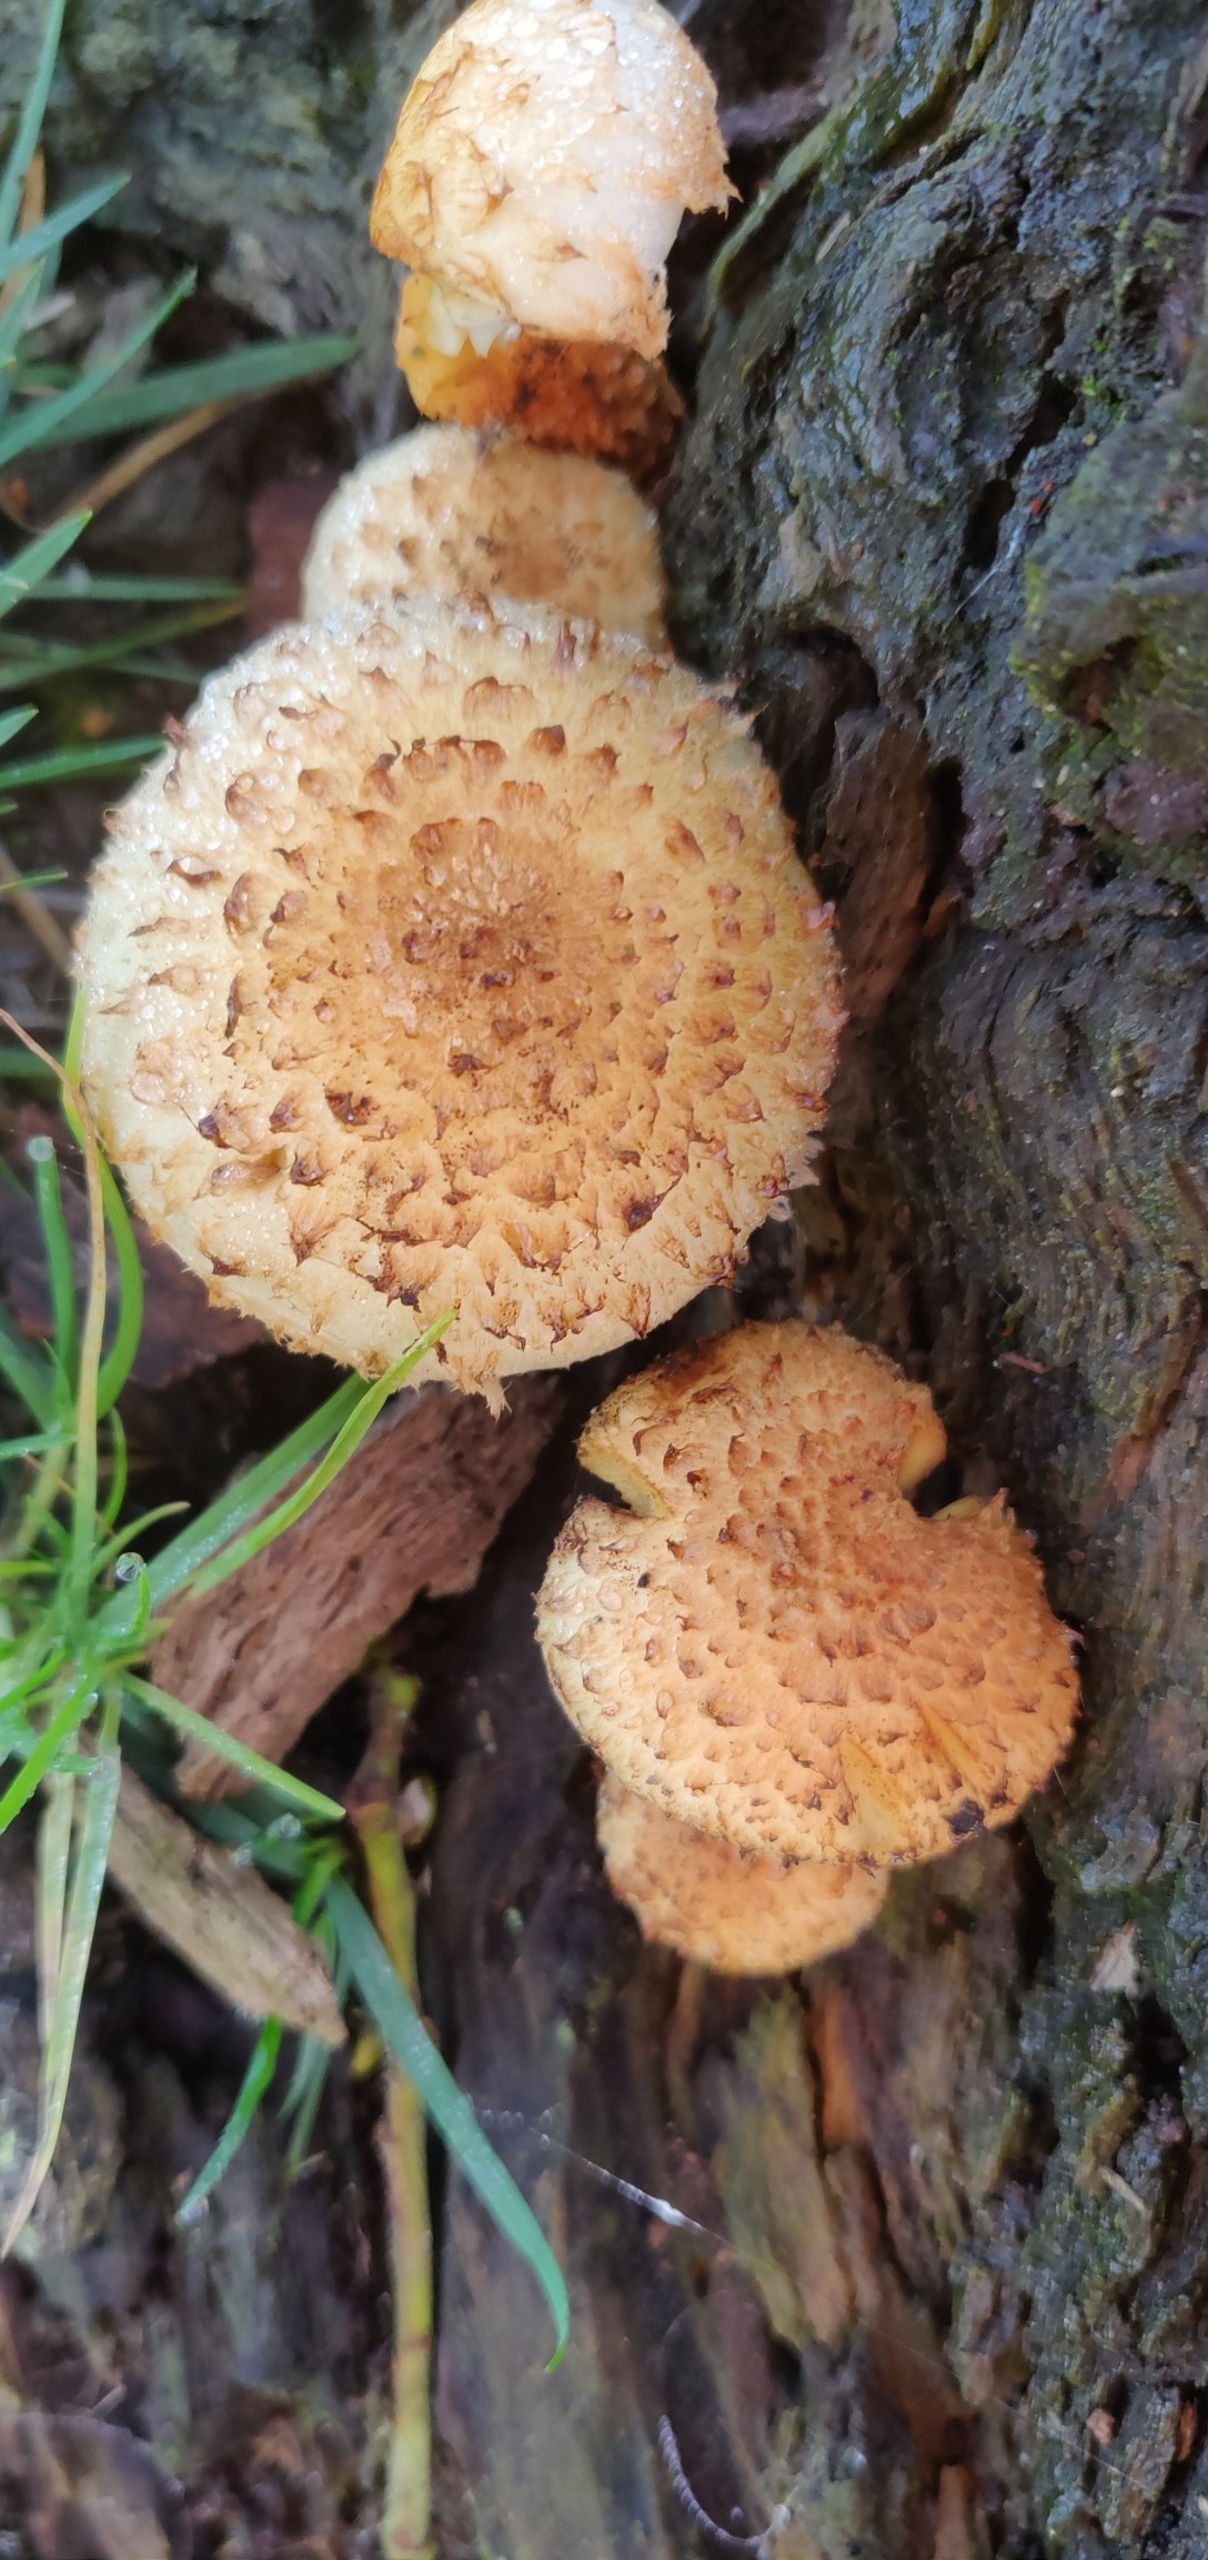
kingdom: Fungi
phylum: Basidiomycota
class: Agaricomycetes
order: Agaricales
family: Strophariaceae
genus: Pholiota
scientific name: Pholiota squarrosa
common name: Krumskællet skælhat
